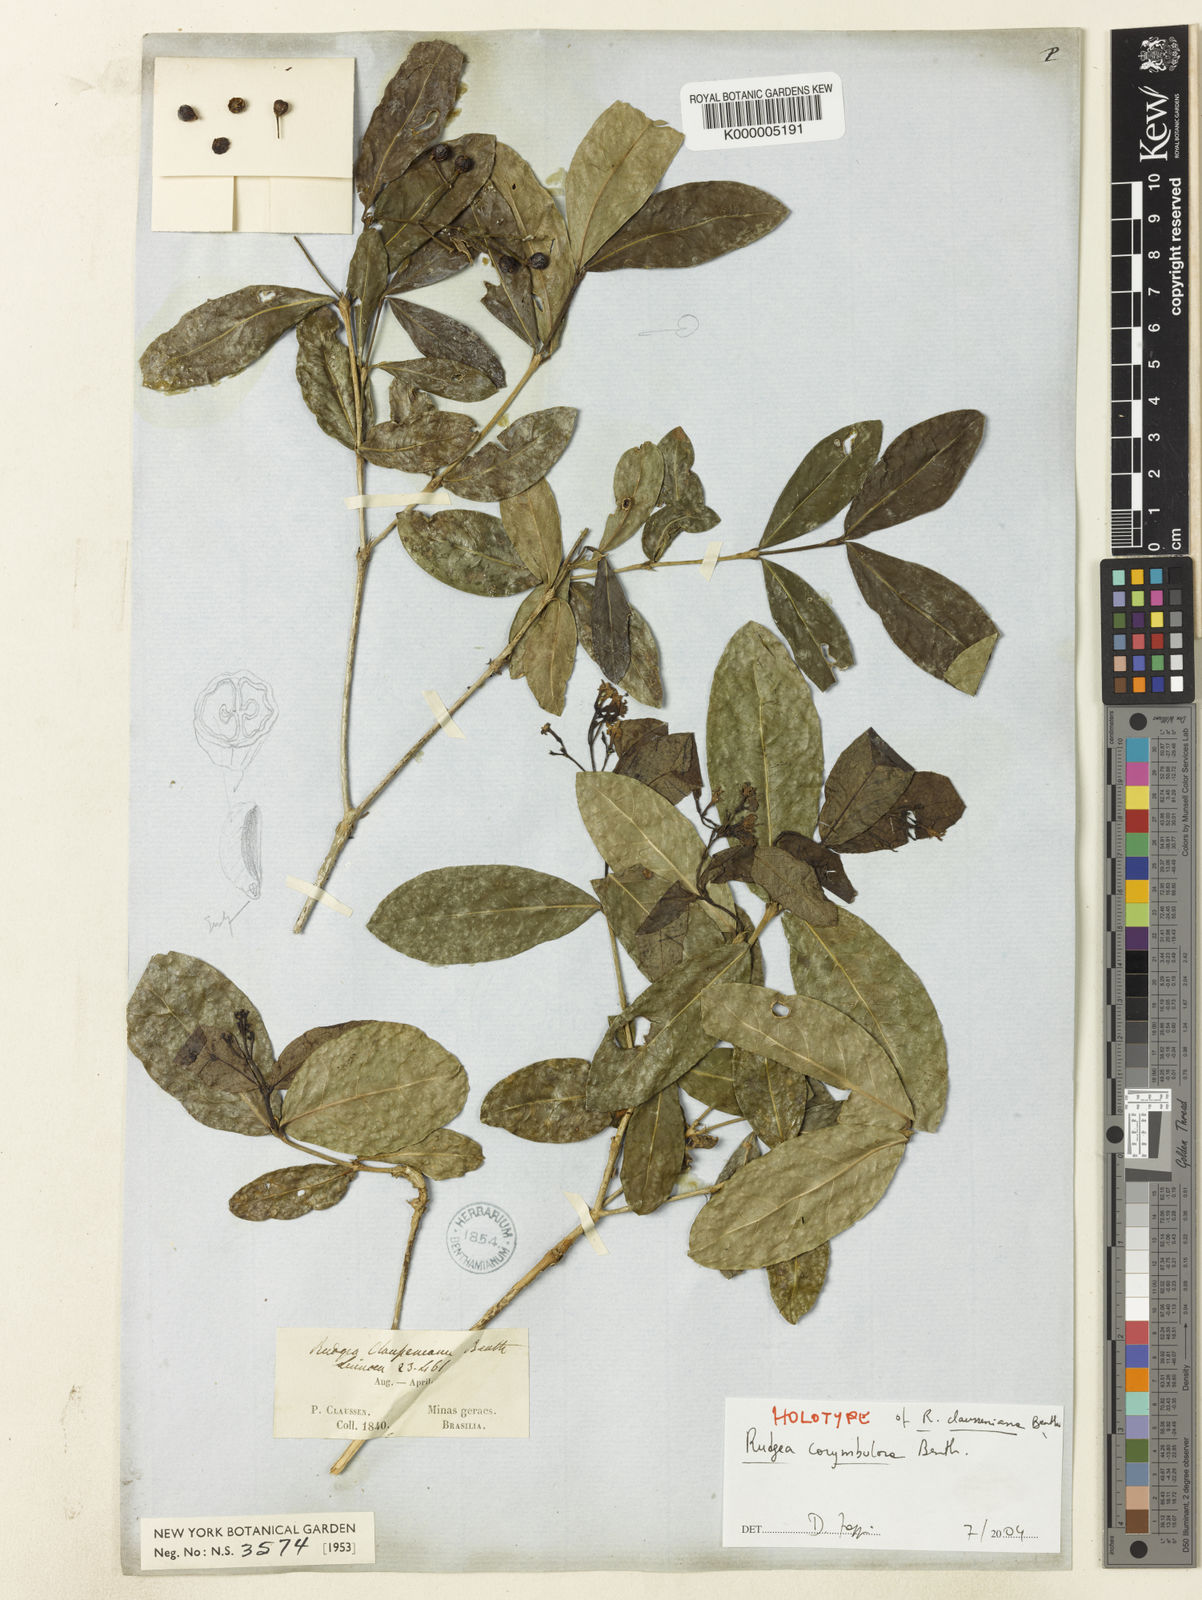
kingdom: Plantae
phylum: Tracheophyta
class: Magnoliopsida
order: Gentianales
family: Rubiaceae
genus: Rudgea
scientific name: Rudgea corymbulosa
